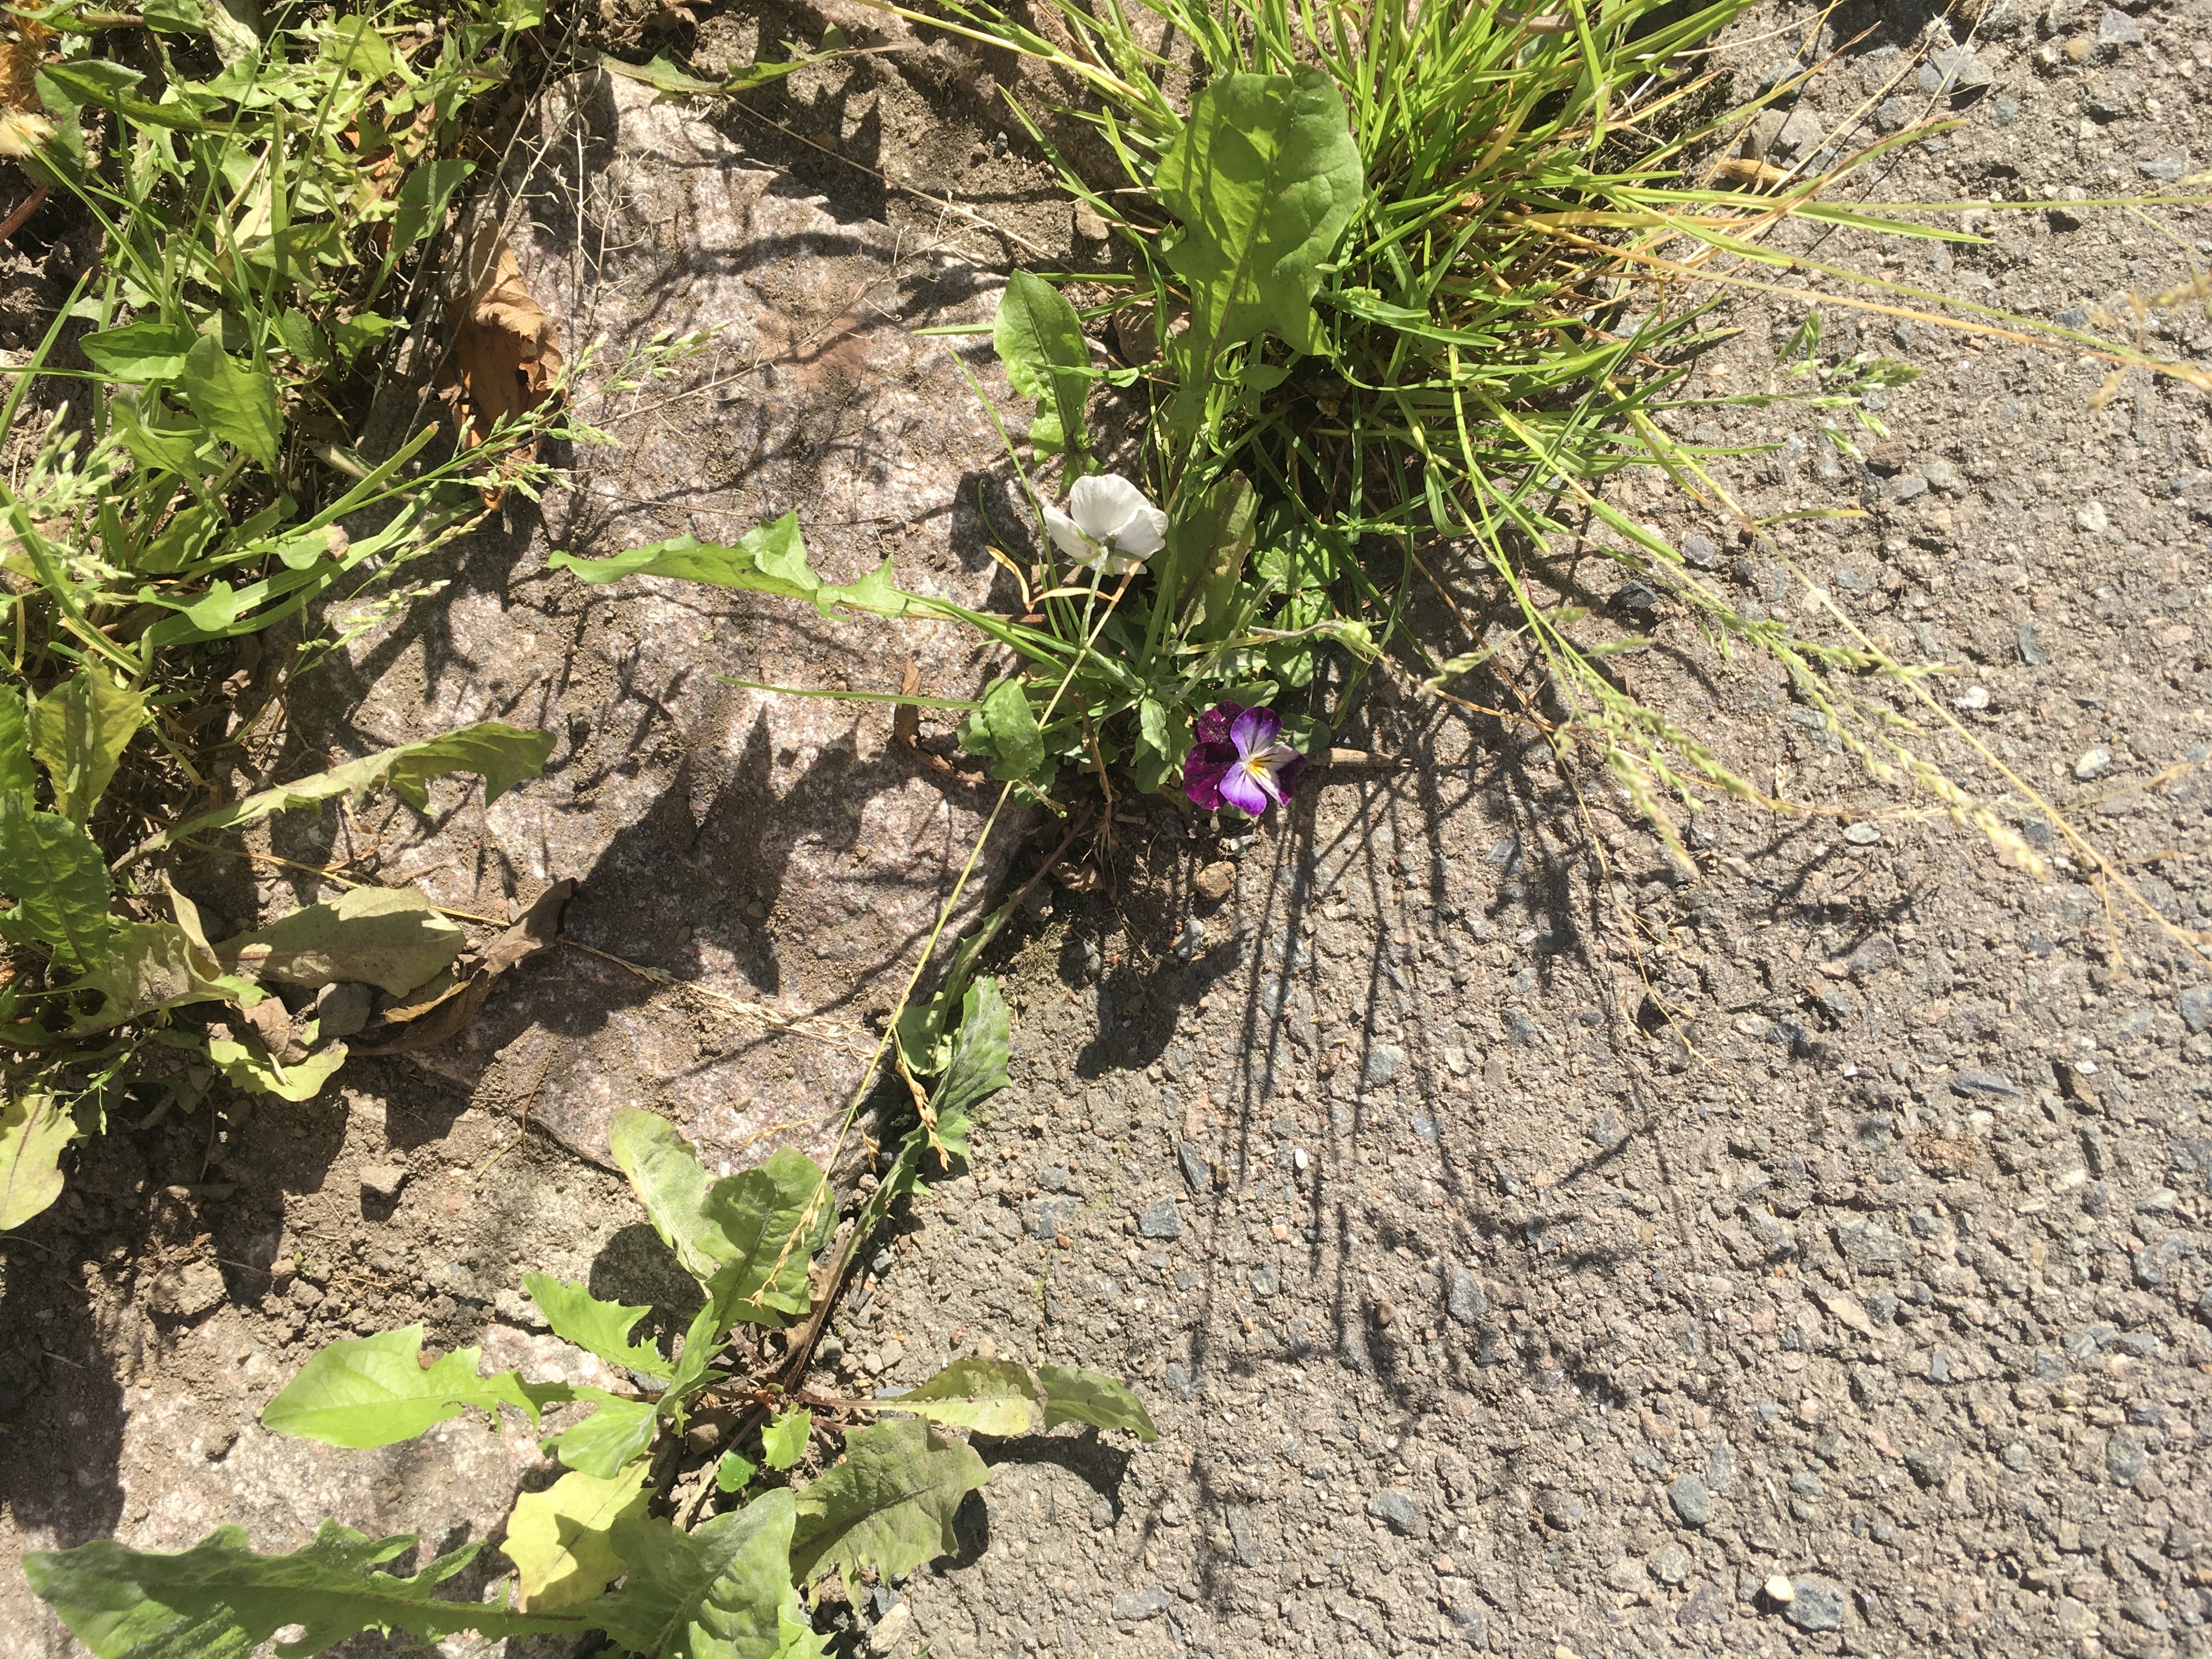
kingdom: Plantae
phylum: Tracheophyta
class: Magnoliopsida
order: Malpighiales
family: Violaceae
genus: Viola
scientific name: Viola wittrockiana
